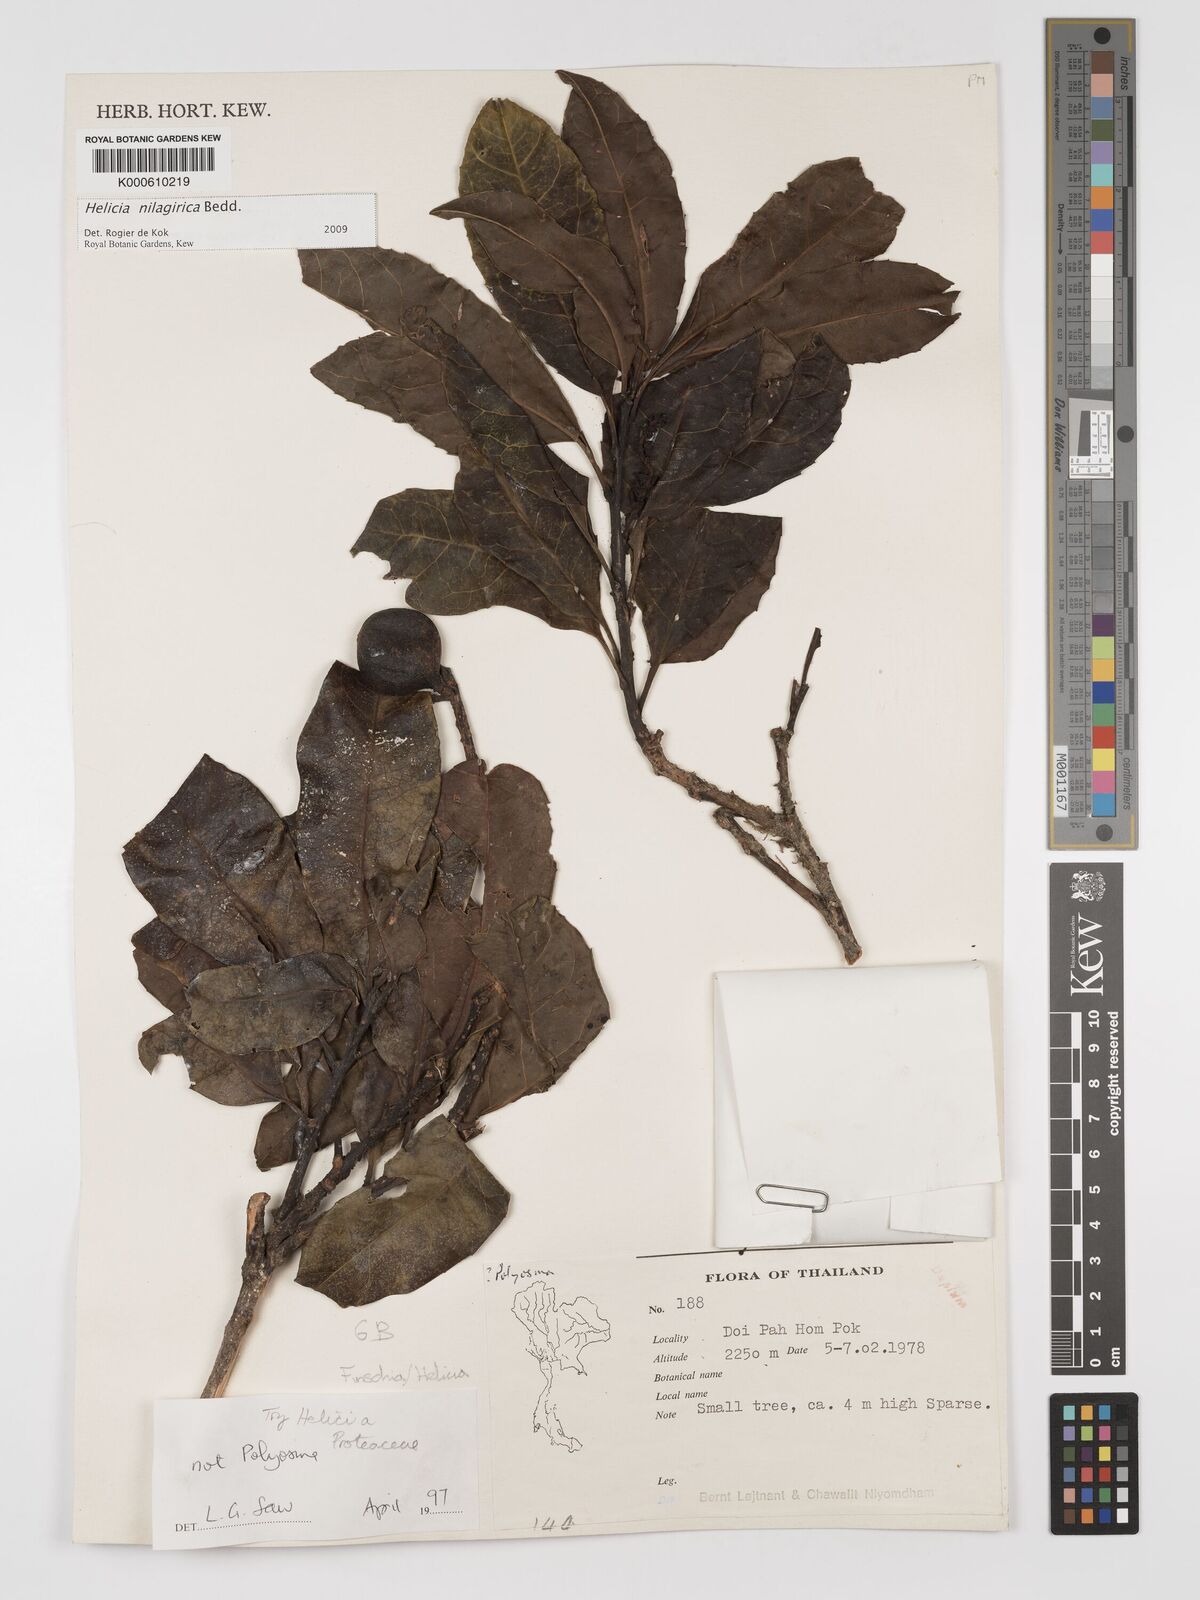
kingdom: Plantae
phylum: Tracheophyta
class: Magnoliopsida
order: Proteales
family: Proteaceae
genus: Helicia
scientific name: Helicia nilagirica
